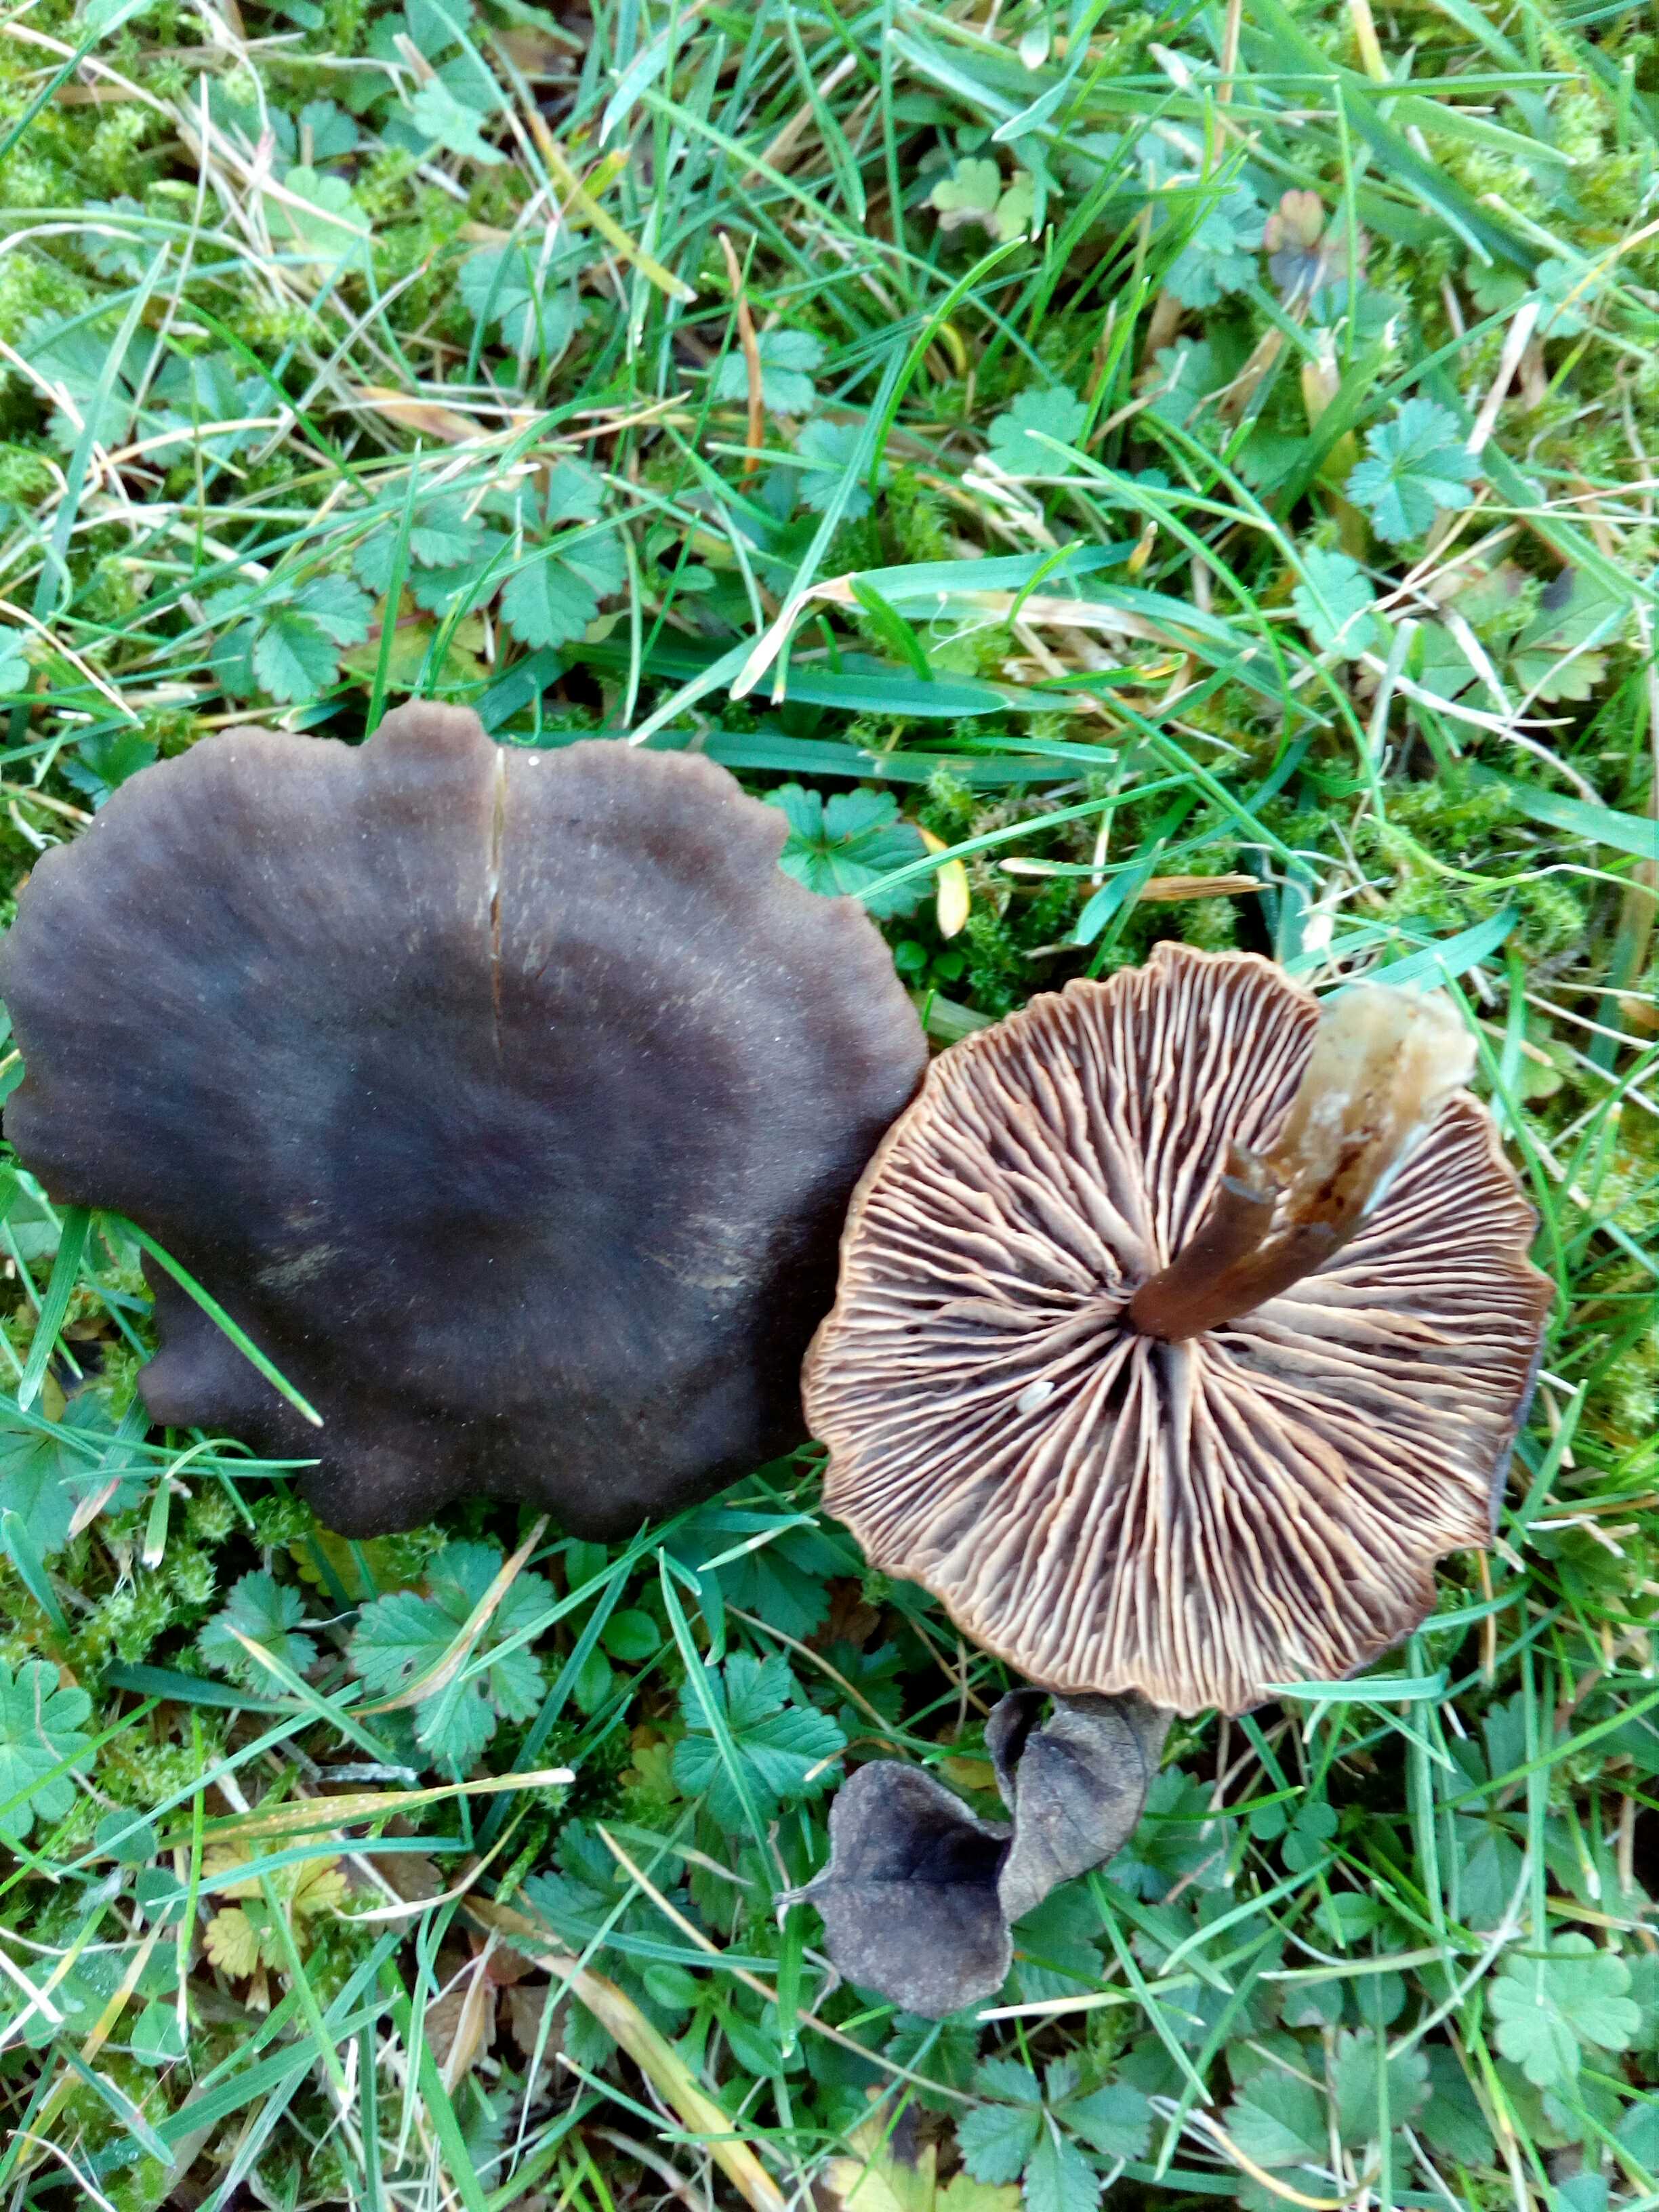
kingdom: Fungi
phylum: Basidiomycota
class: Agaricomycetes
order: Agaricales
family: Entolomataceae
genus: Entoloma
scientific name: Entoloma sericeum
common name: silkeglinsende rødblad
